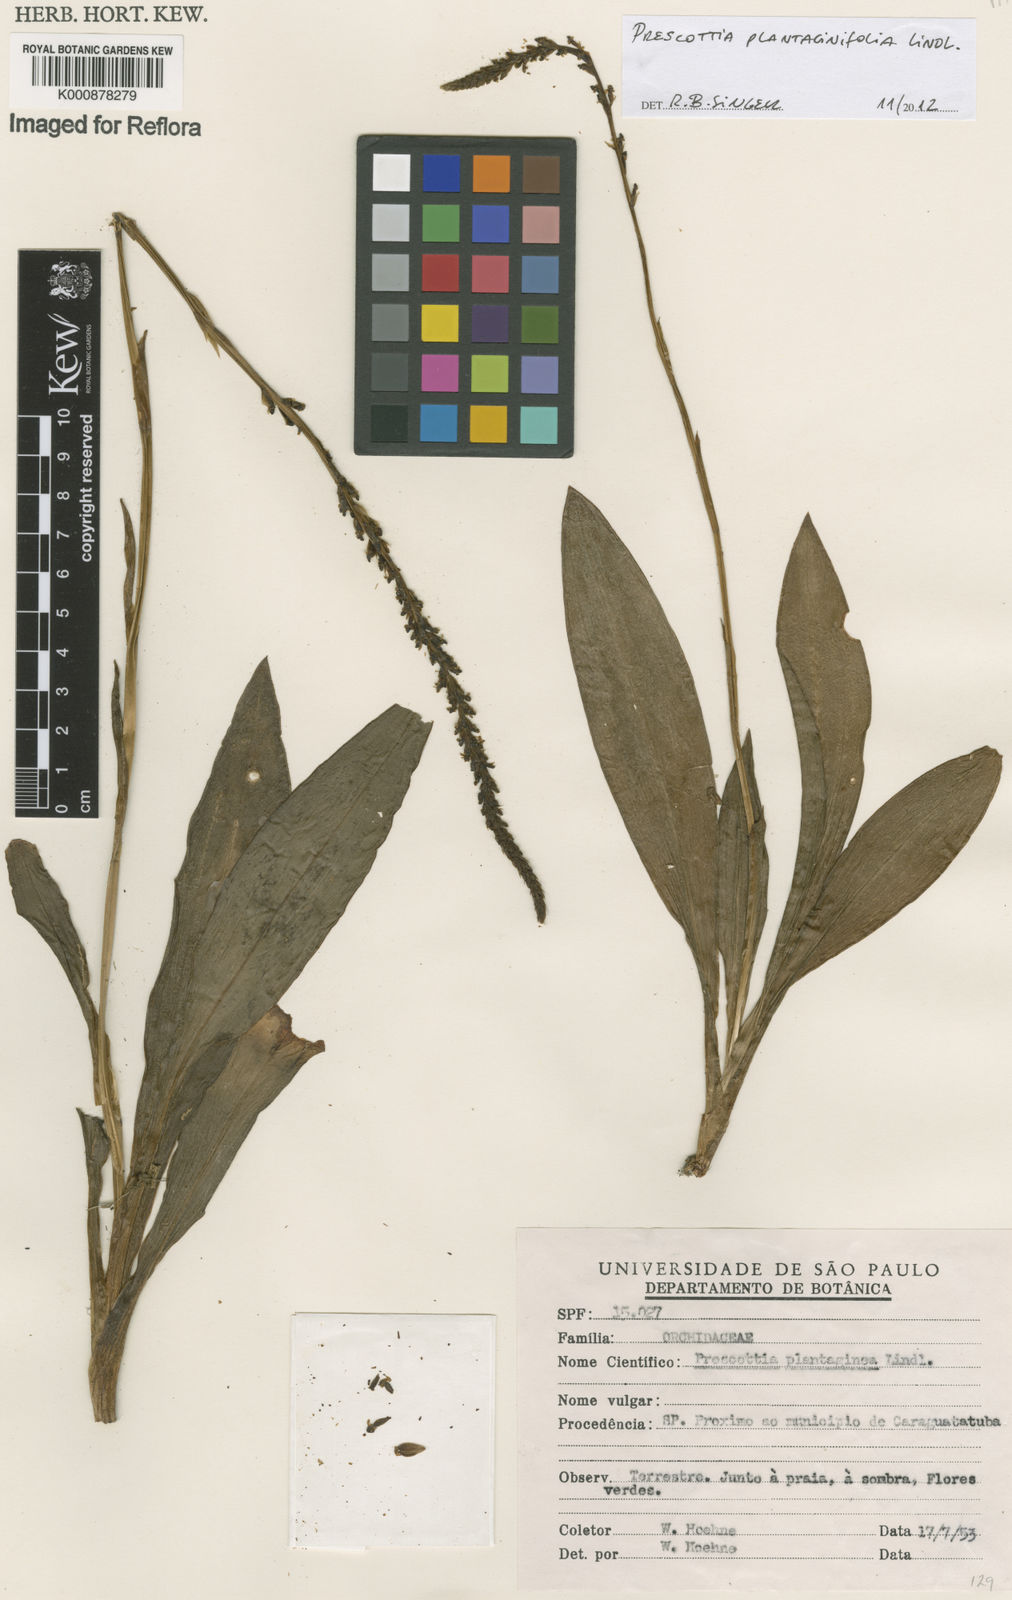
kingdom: Plantae
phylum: Tracheophyta
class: Liliopsida
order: Asparagales
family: Orchidaceae
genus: Prescottia
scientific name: Prescottia plantaginifolia
